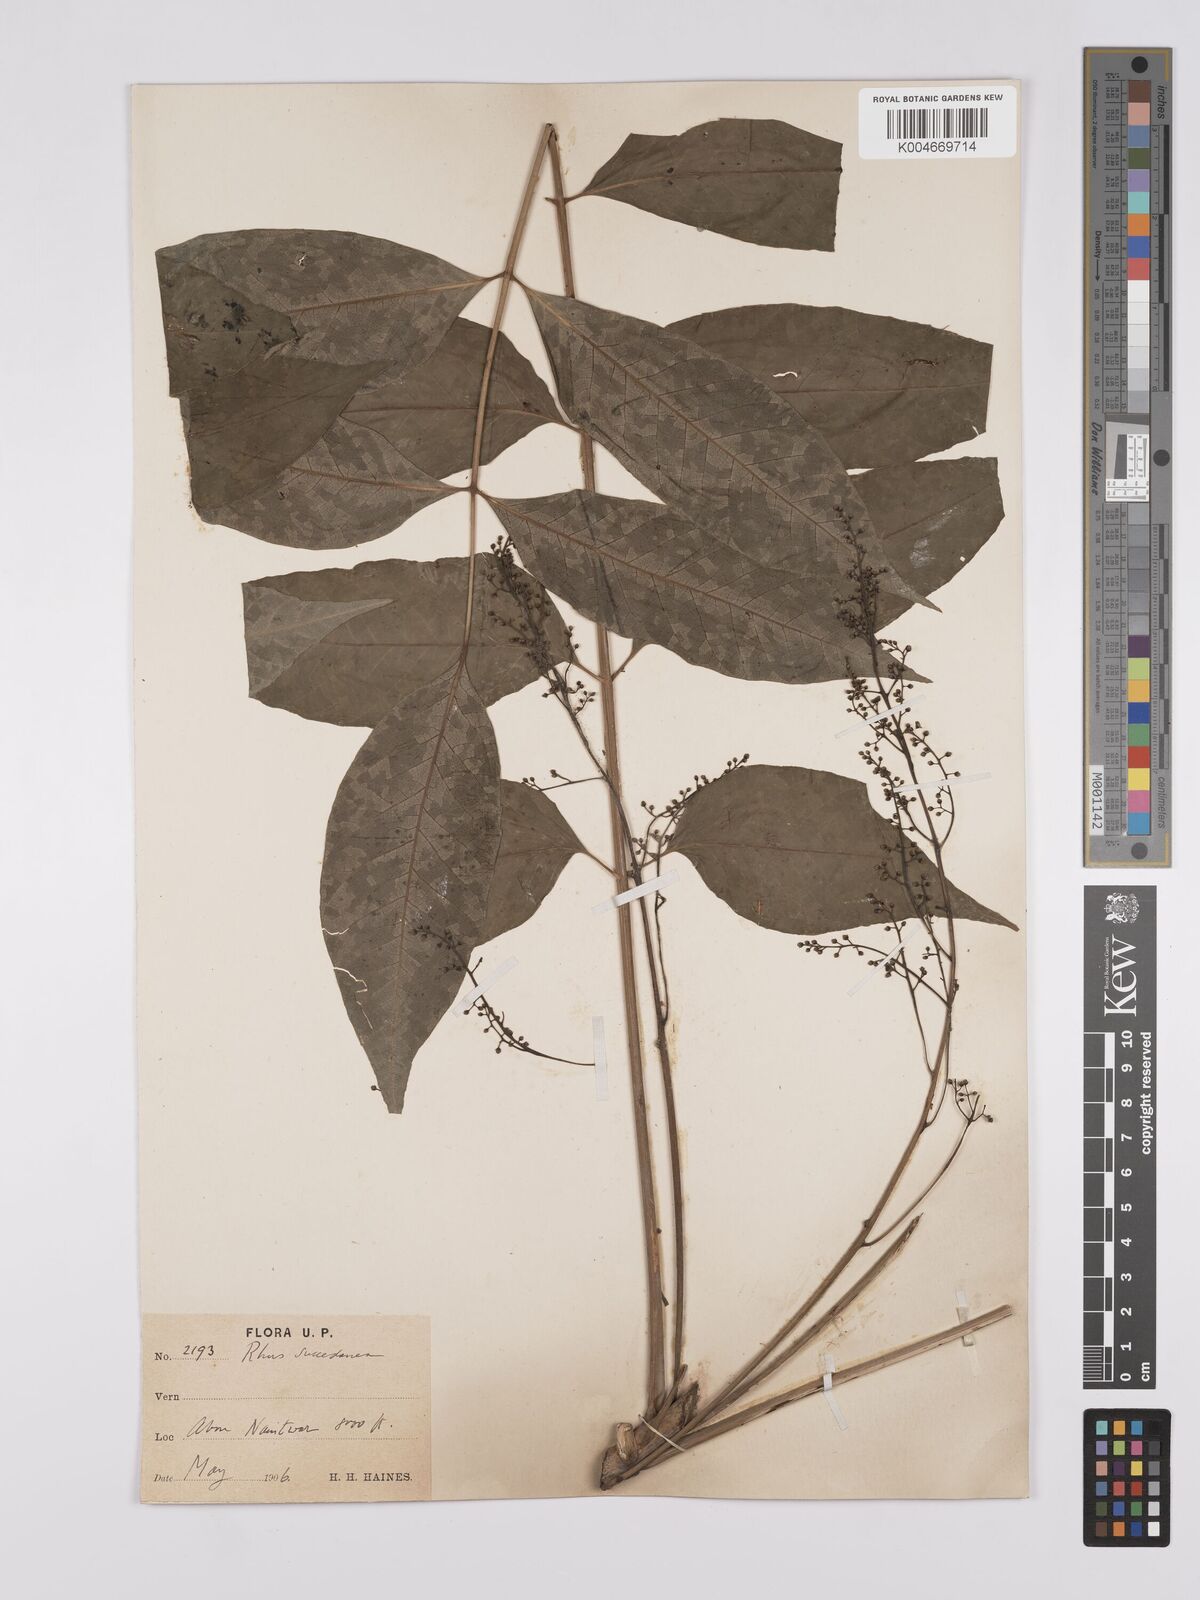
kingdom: Plantae
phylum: Tracheophyta
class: Magnoliopsida
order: Sapindales
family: Anacardiaceae
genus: Toxicodendron
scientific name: Toxicodendron succedaneum
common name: Wax tree
